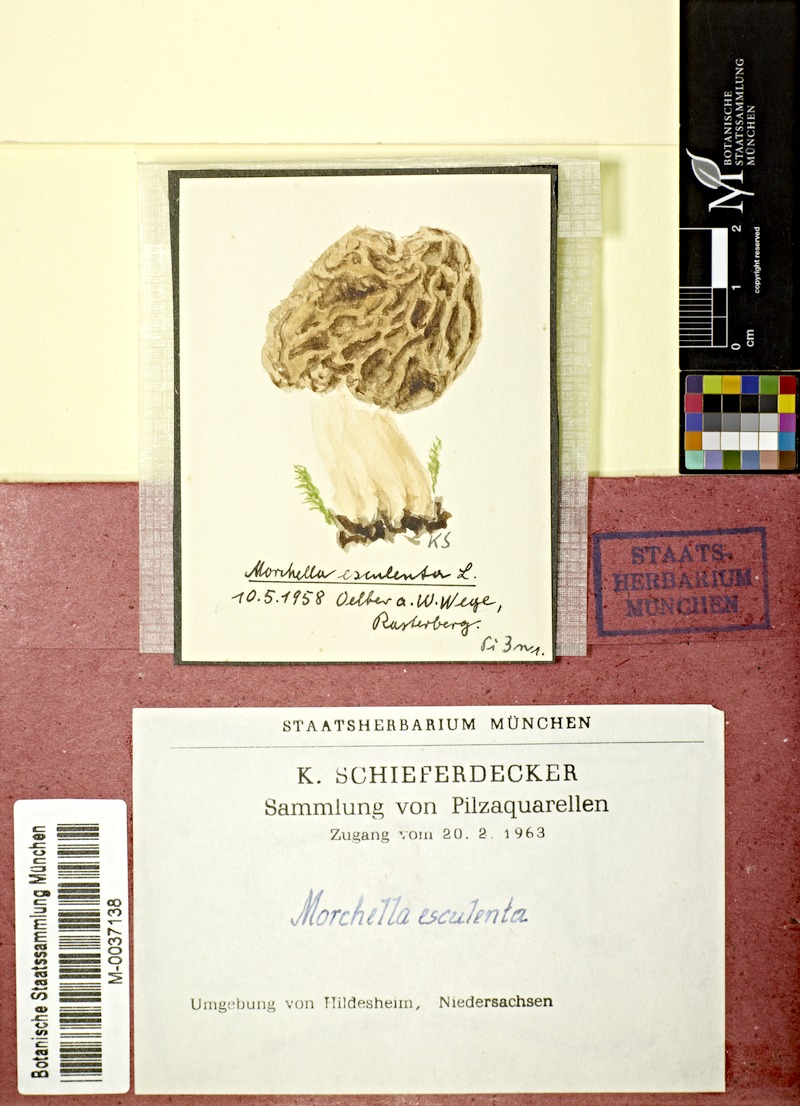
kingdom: Fungi
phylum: Ascomycota
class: Pezizomycetes
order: Pezizales
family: Morchellaceae
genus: Morchella
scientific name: Morchella esculenta
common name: Morel
